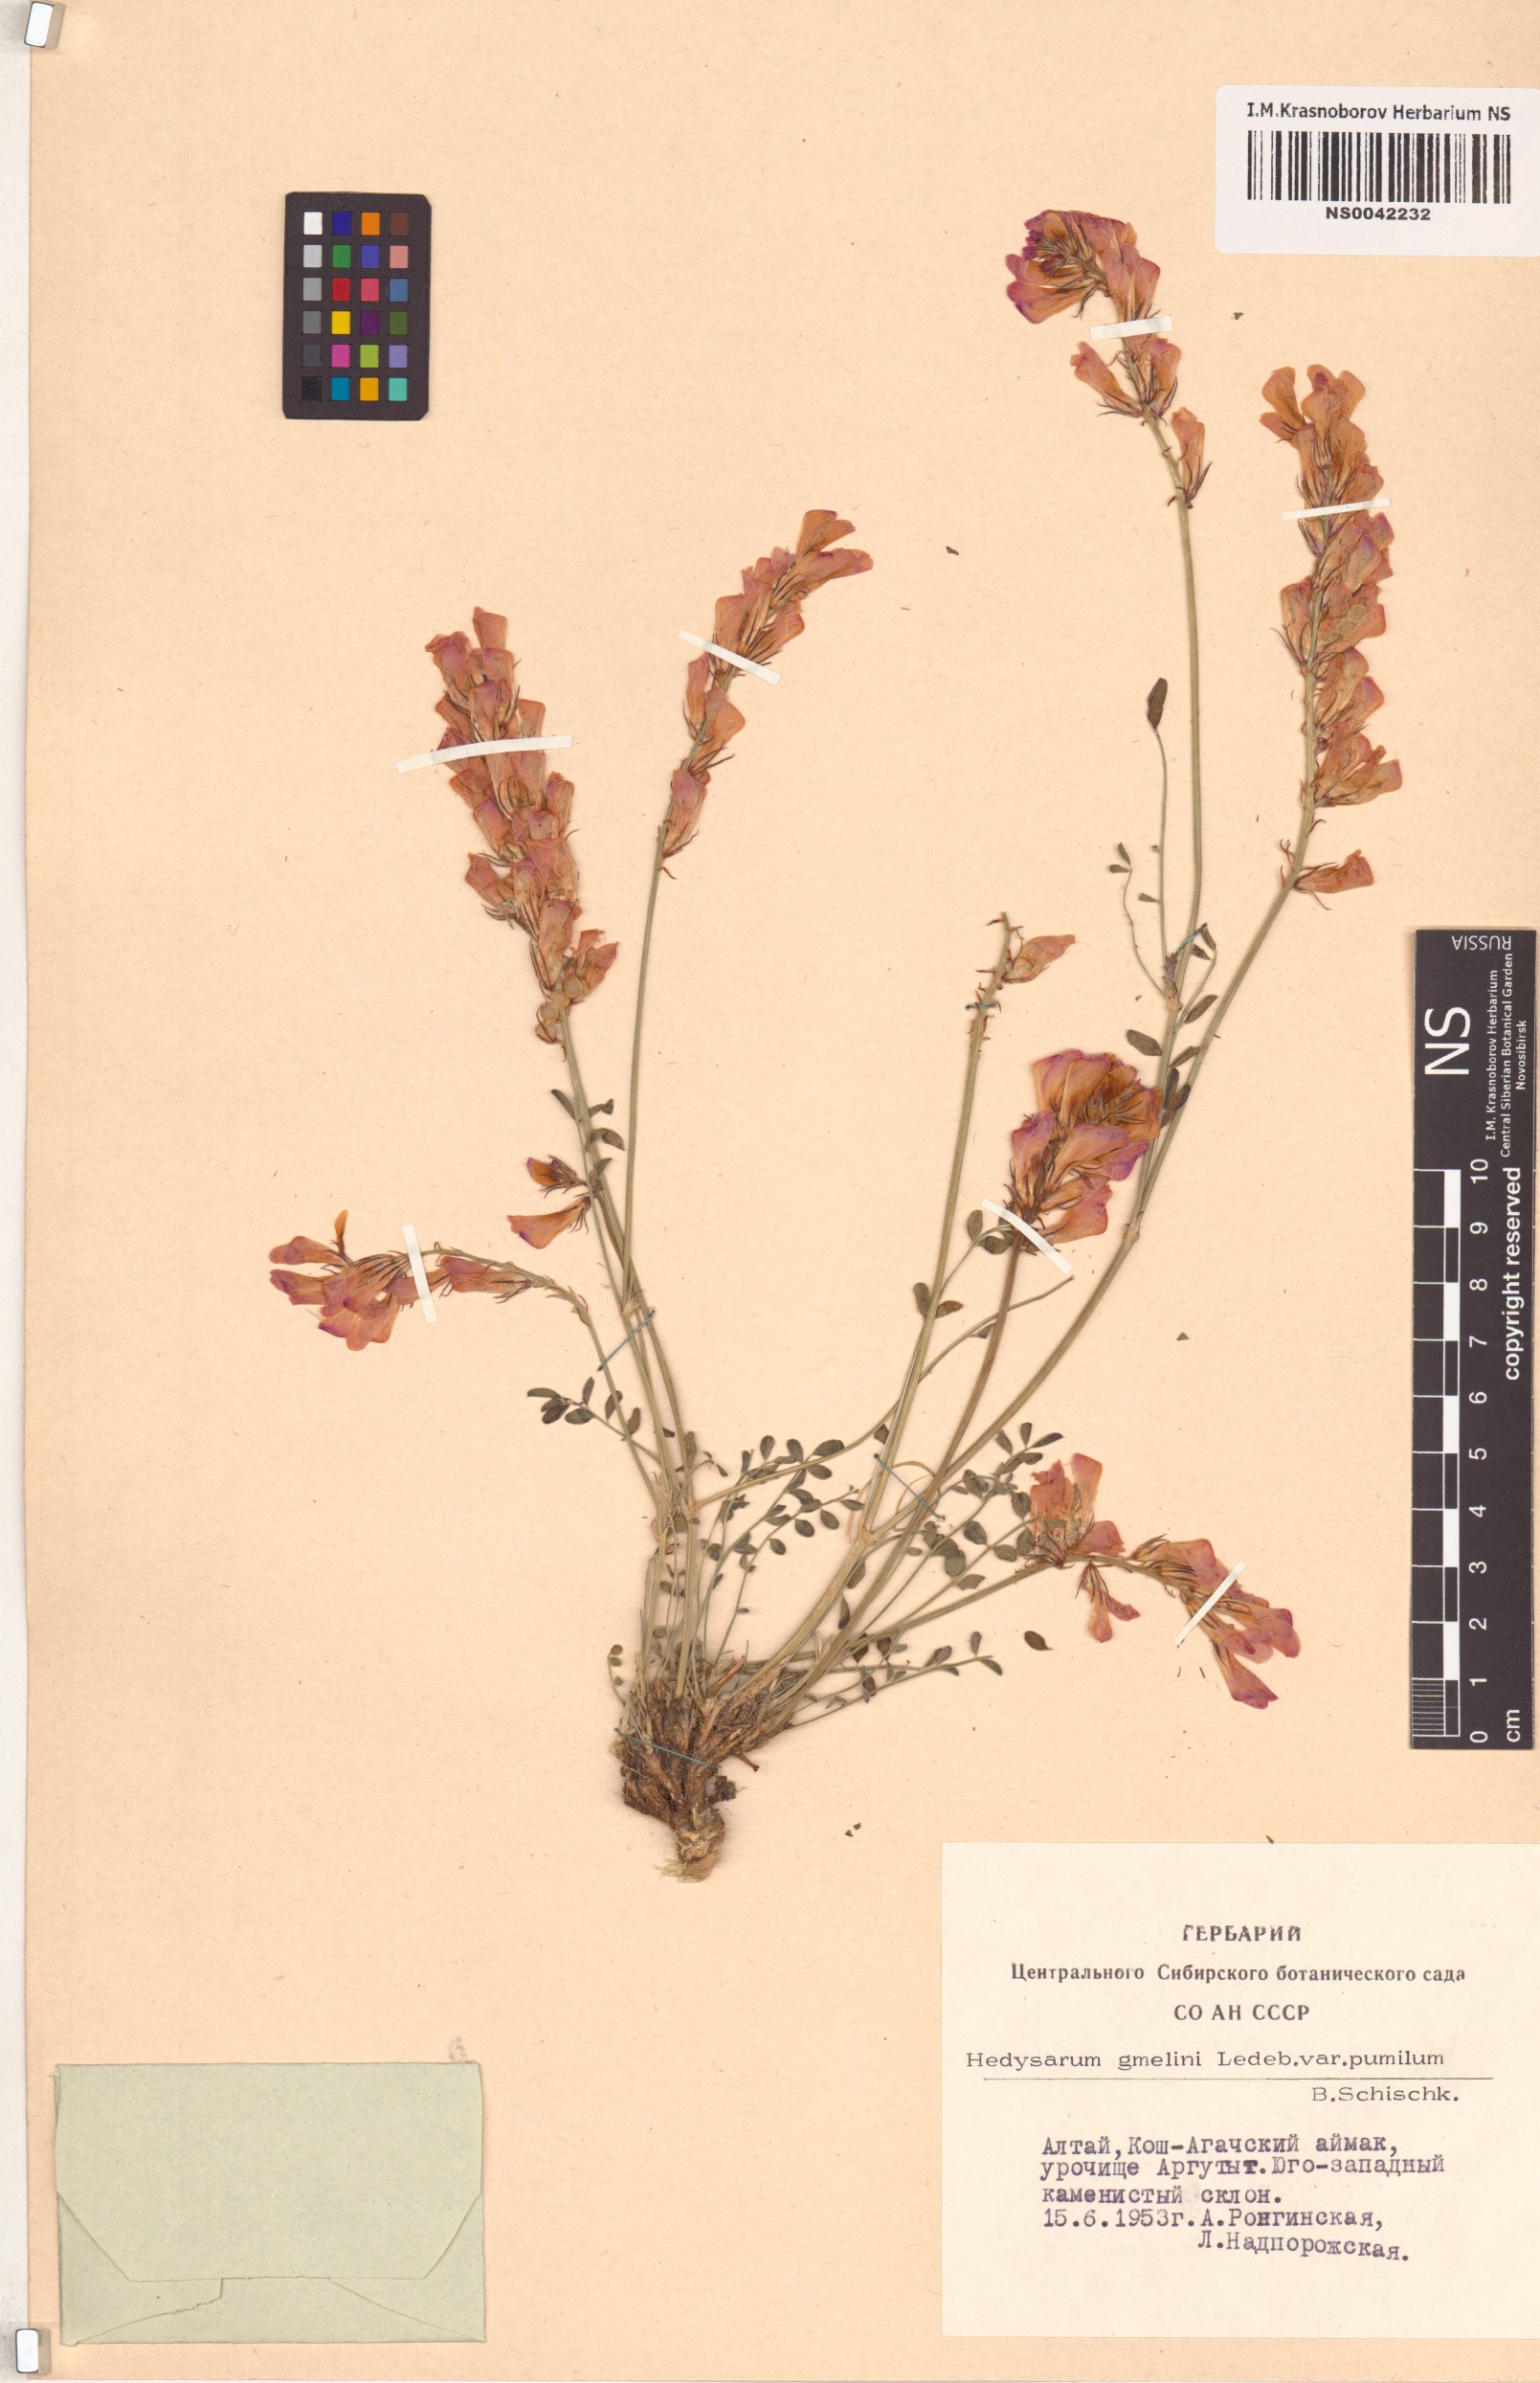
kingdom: Plantae
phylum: Tracheophyta
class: Magnoliopsida
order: Fabales
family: Fabaceae
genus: Hedysarum
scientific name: Hedysarum gmelinii
